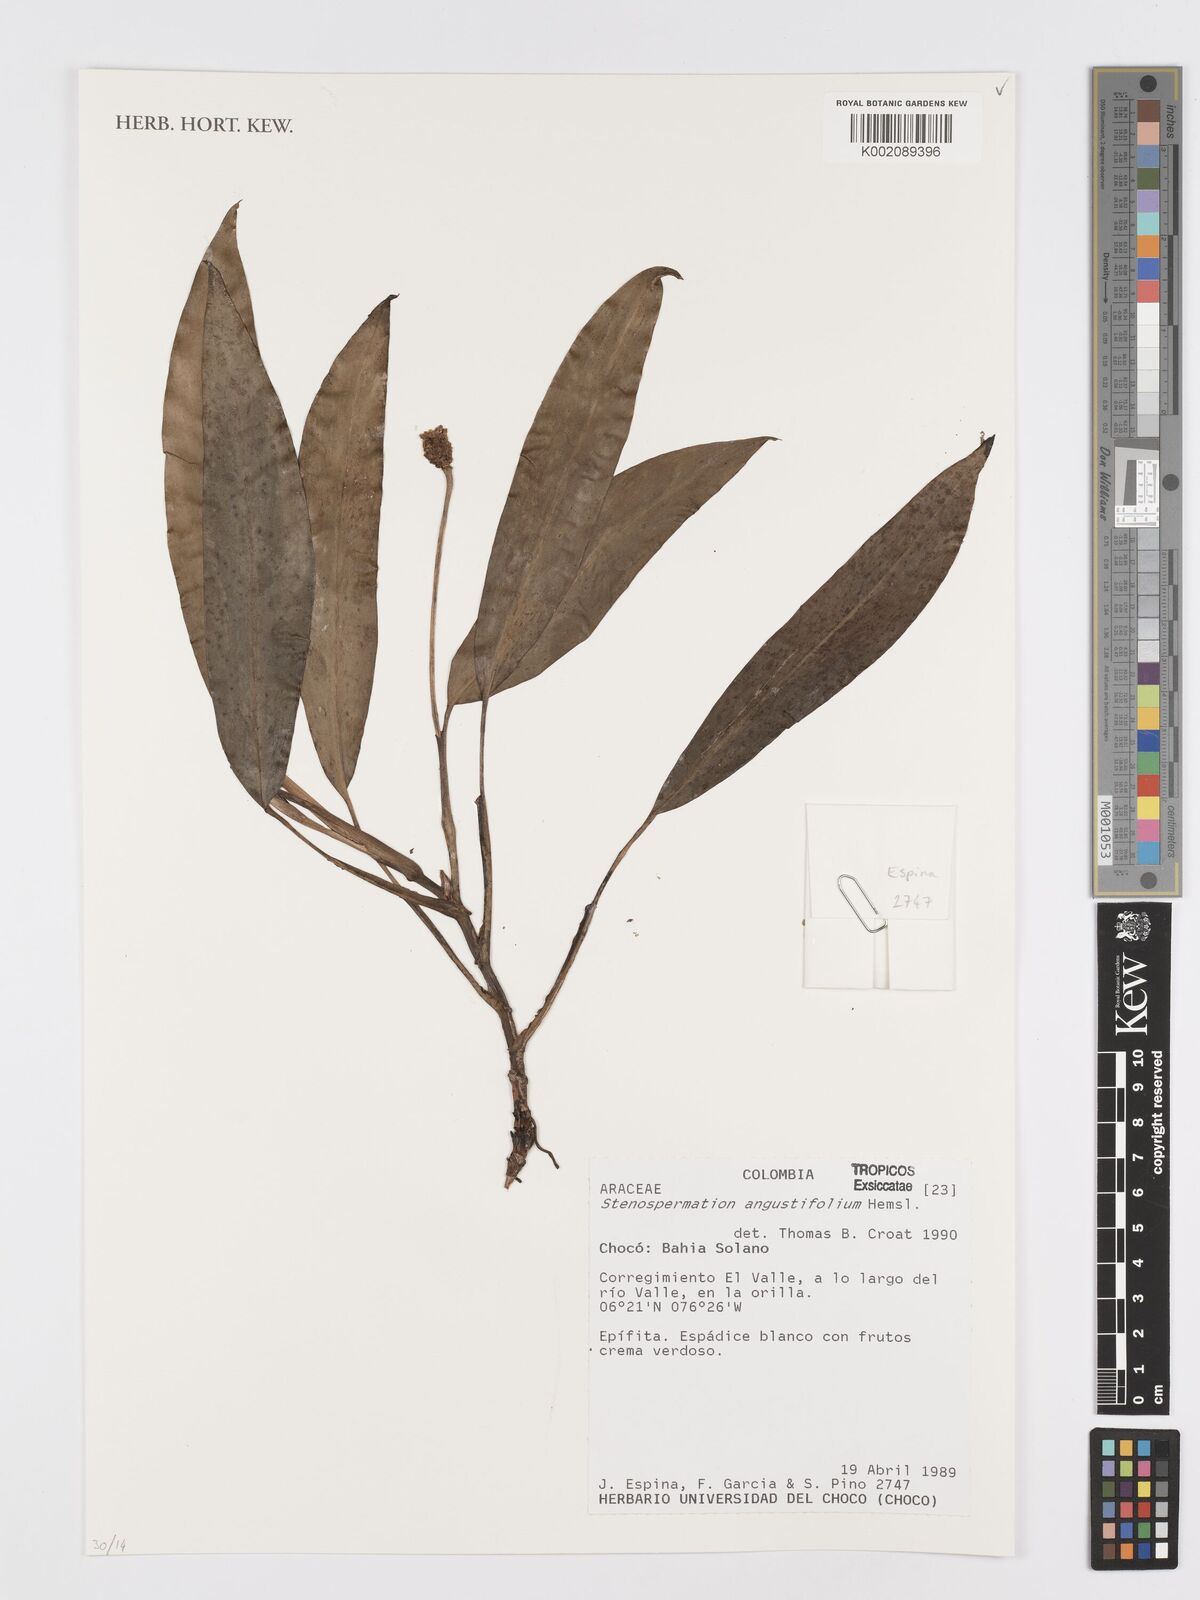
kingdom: Plantae
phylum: Tracheophyta
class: Liliopsida
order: Alismatales
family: Araceae
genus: Stenospermation
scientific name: Stenospermation angustifolium
